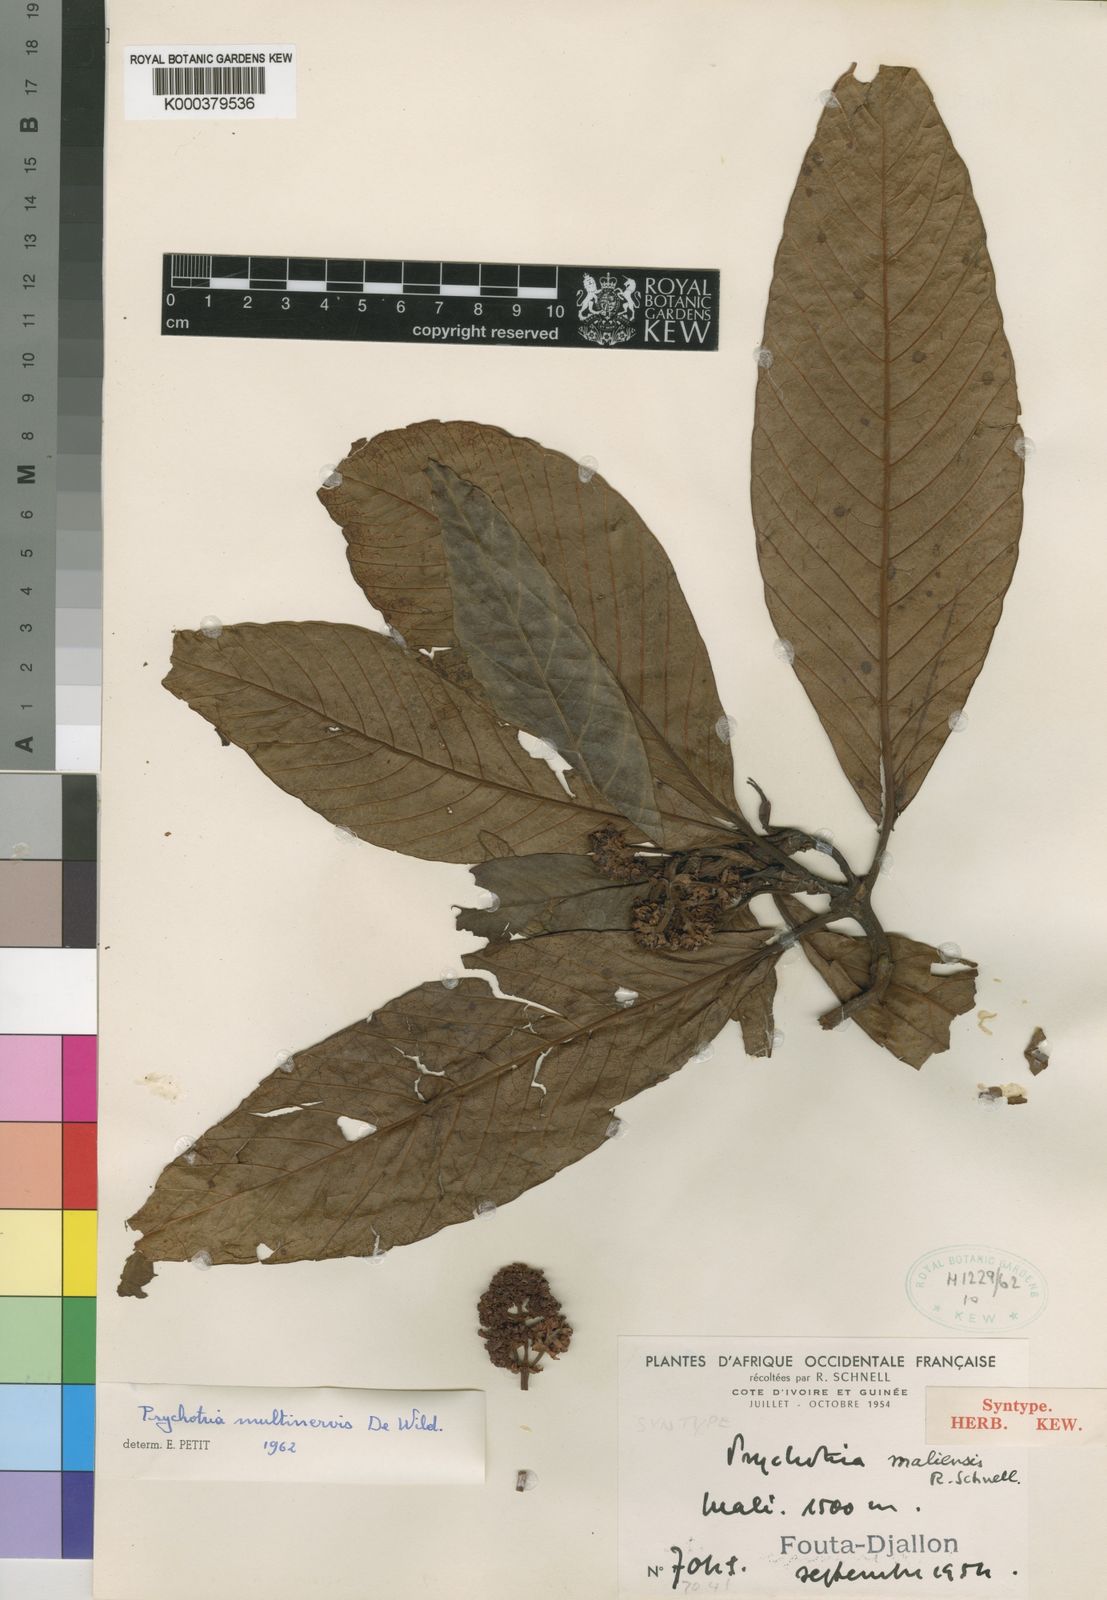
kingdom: Plantae
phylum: Tracheophyta
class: Magnoliopsida
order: Gentianales
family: Rubiaceae
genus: Psychotria
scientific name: Psychotria maliensis
